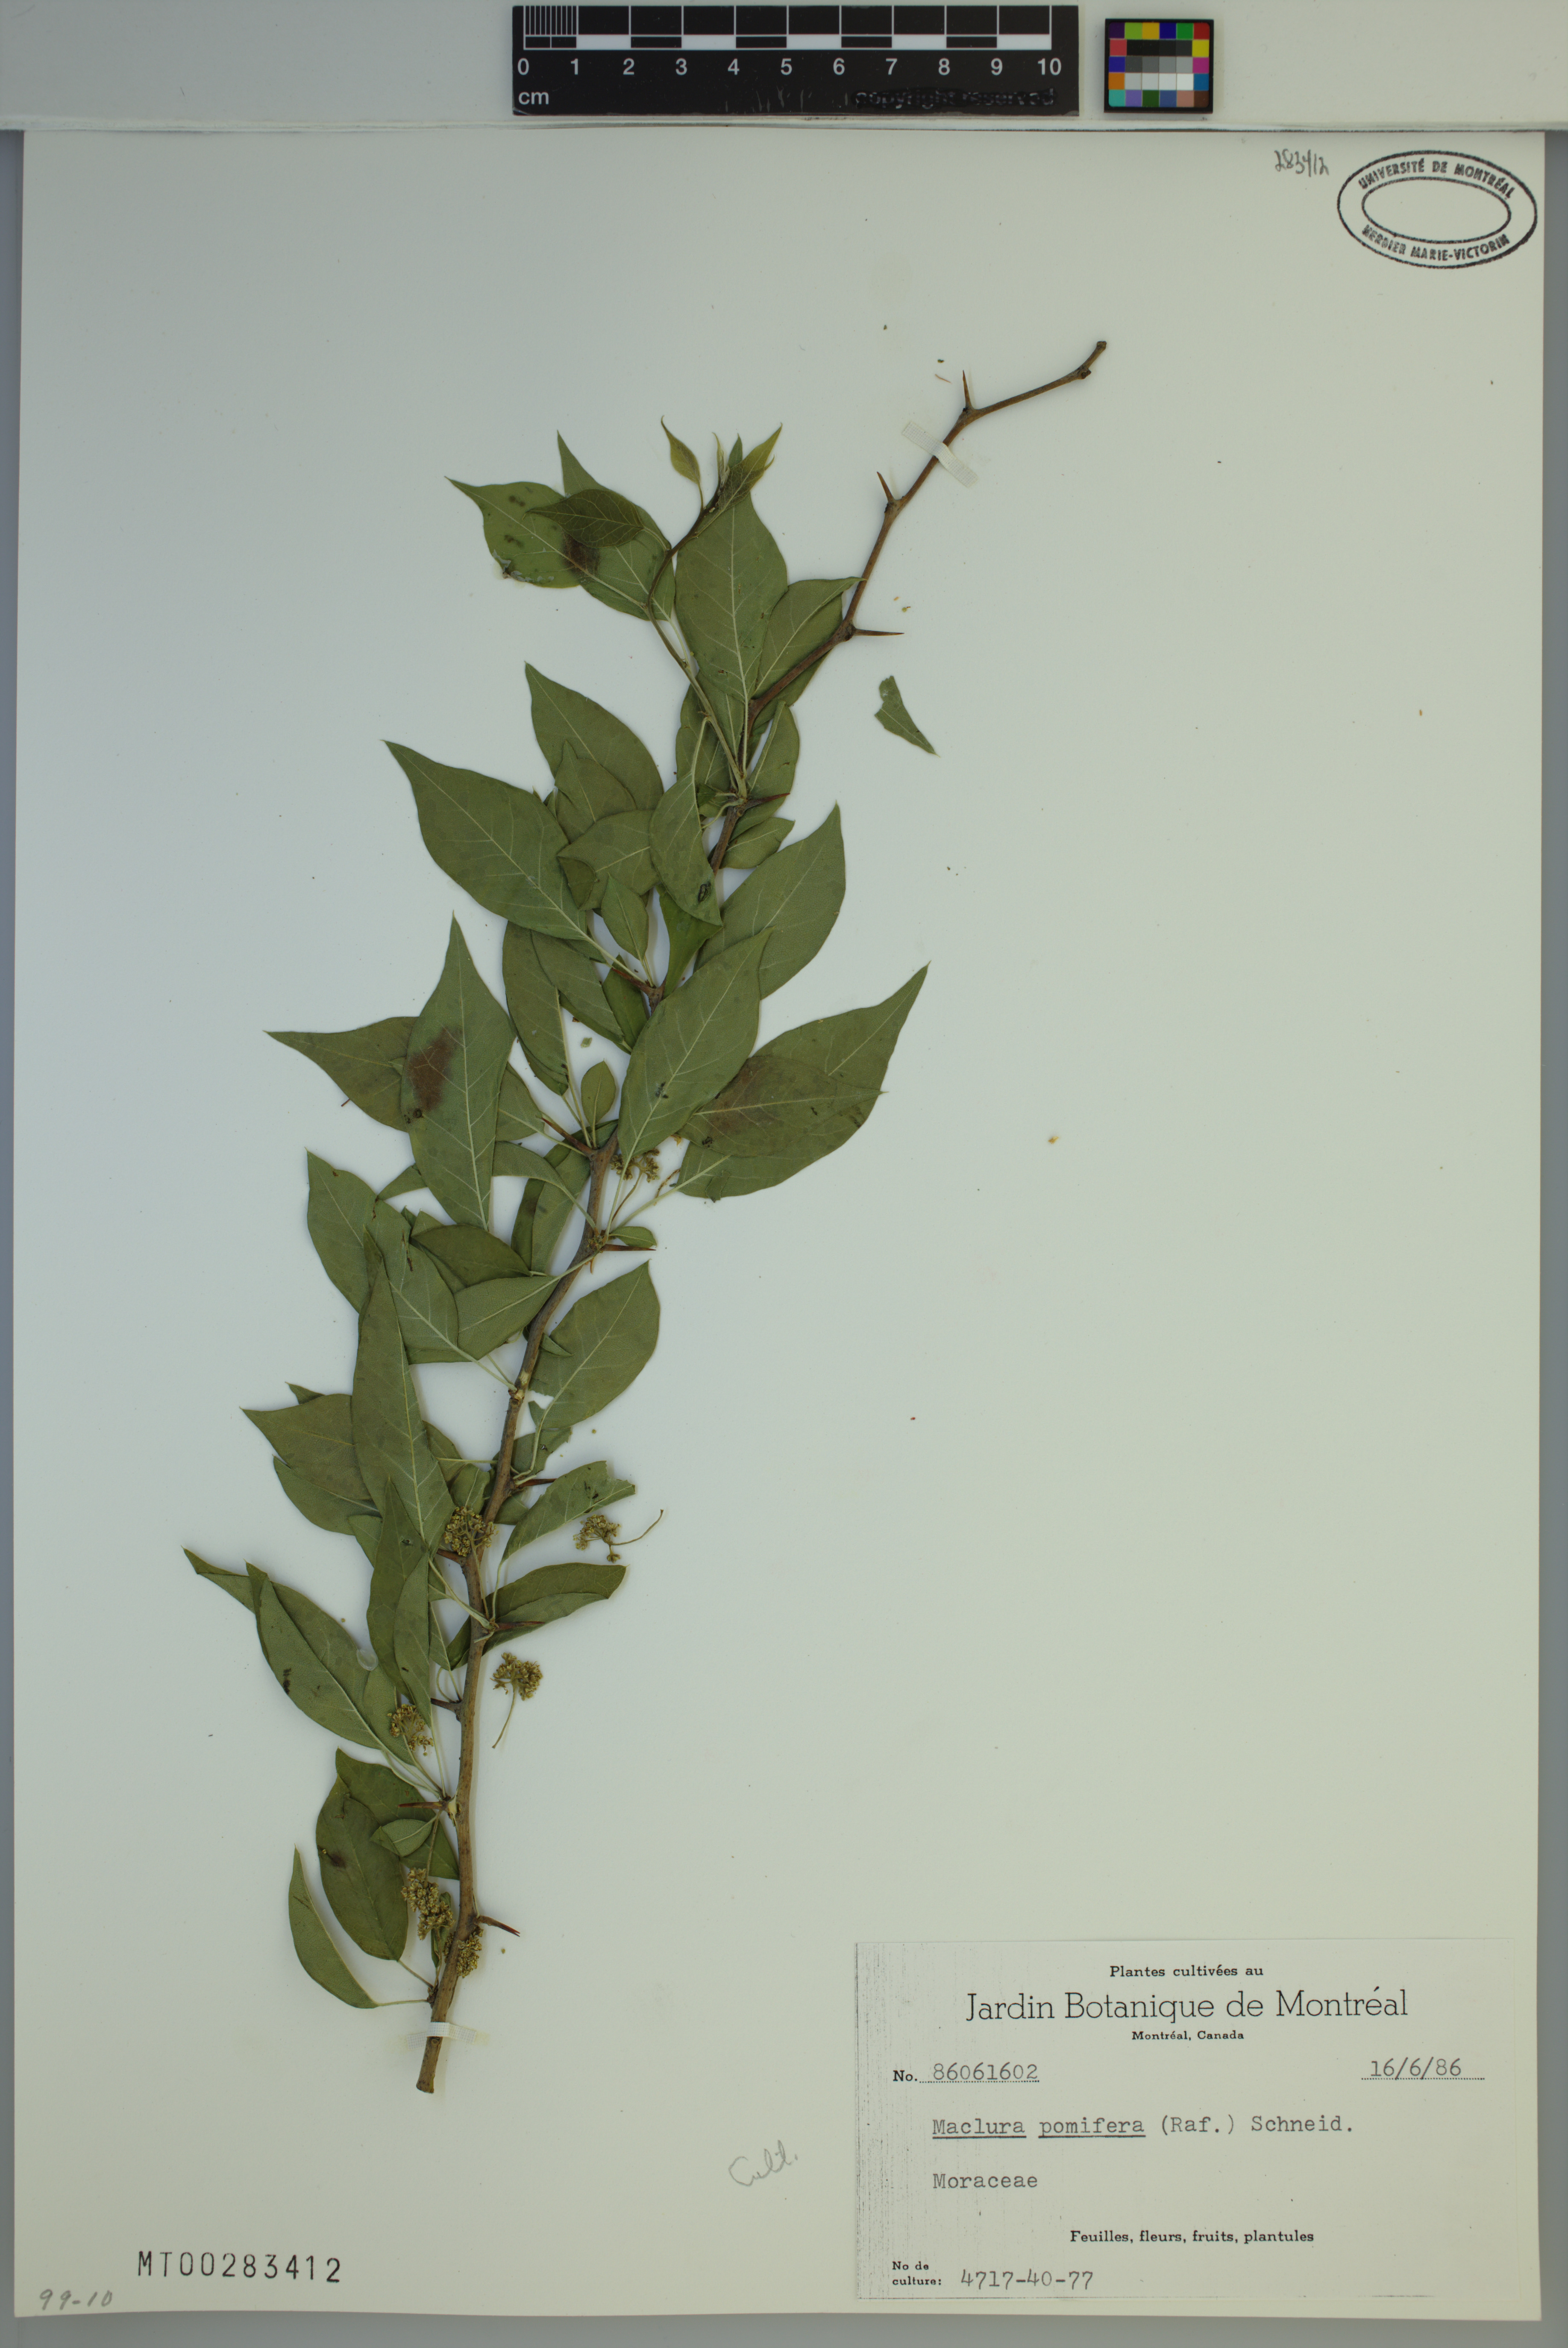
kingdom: Plantae
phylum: Tracheophyta
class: Magnoliopsida
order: Rosales
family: Moraceae
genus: Maclura
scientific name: Maclura pomifera
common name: Osage-orange
